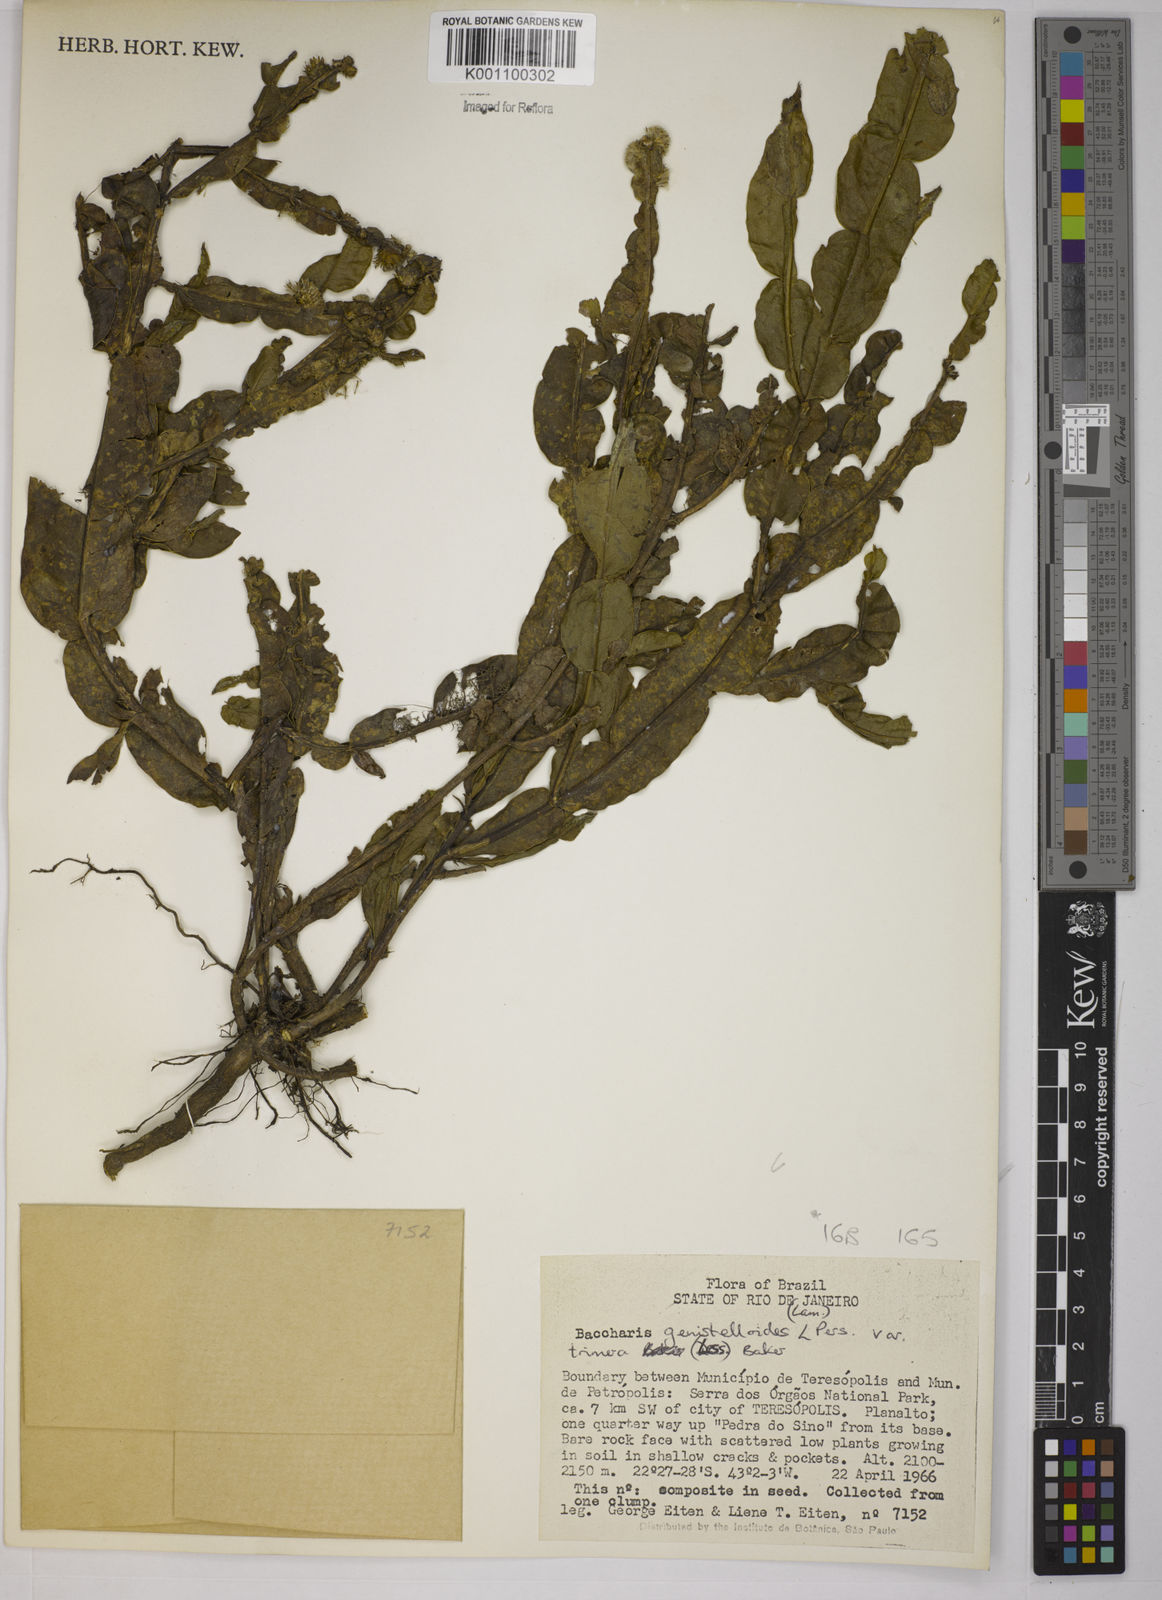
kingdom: Plantae
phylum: Tracheophyta
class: Magnoliopsida
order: Asterales
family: Asteraceae
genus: Baccharis
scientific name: Baccharis trimera
